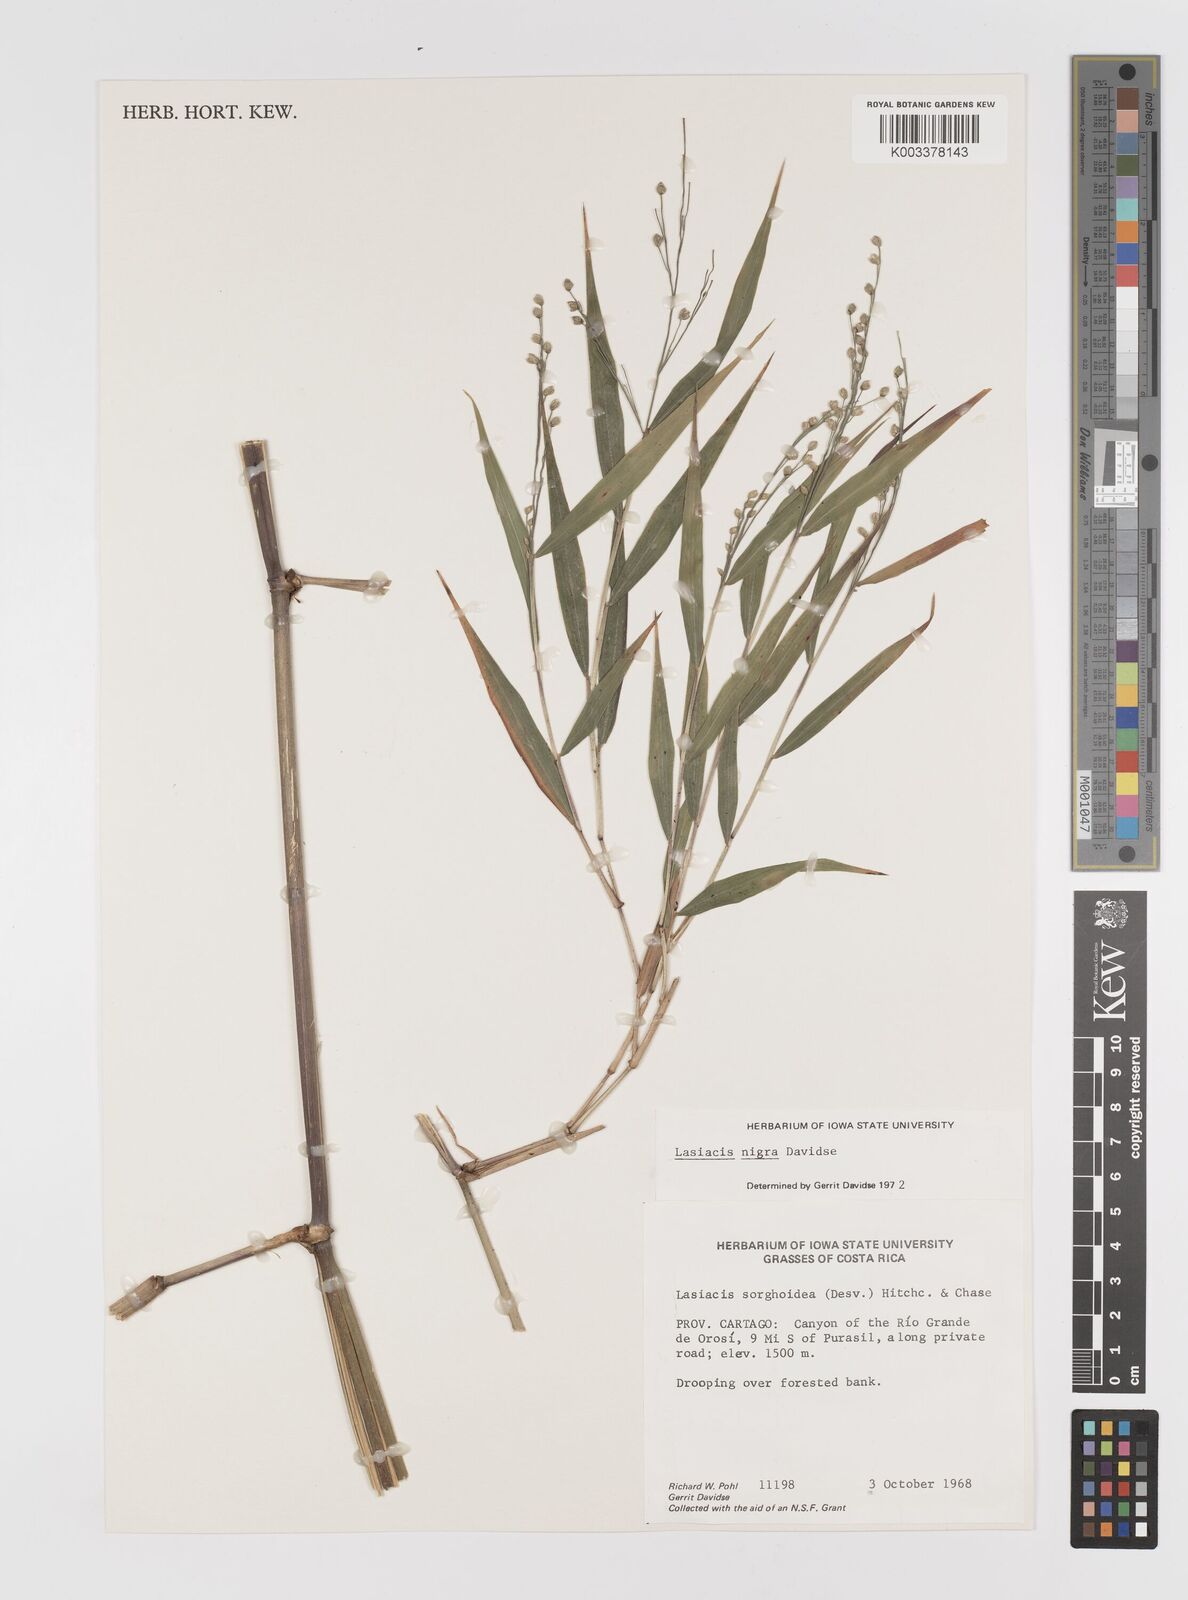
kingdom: Plantae
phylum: Tracheophyta
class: Liliopsida
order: Poales
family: Poaceae
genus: Lasiacis
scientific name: Lasiacis nigra
